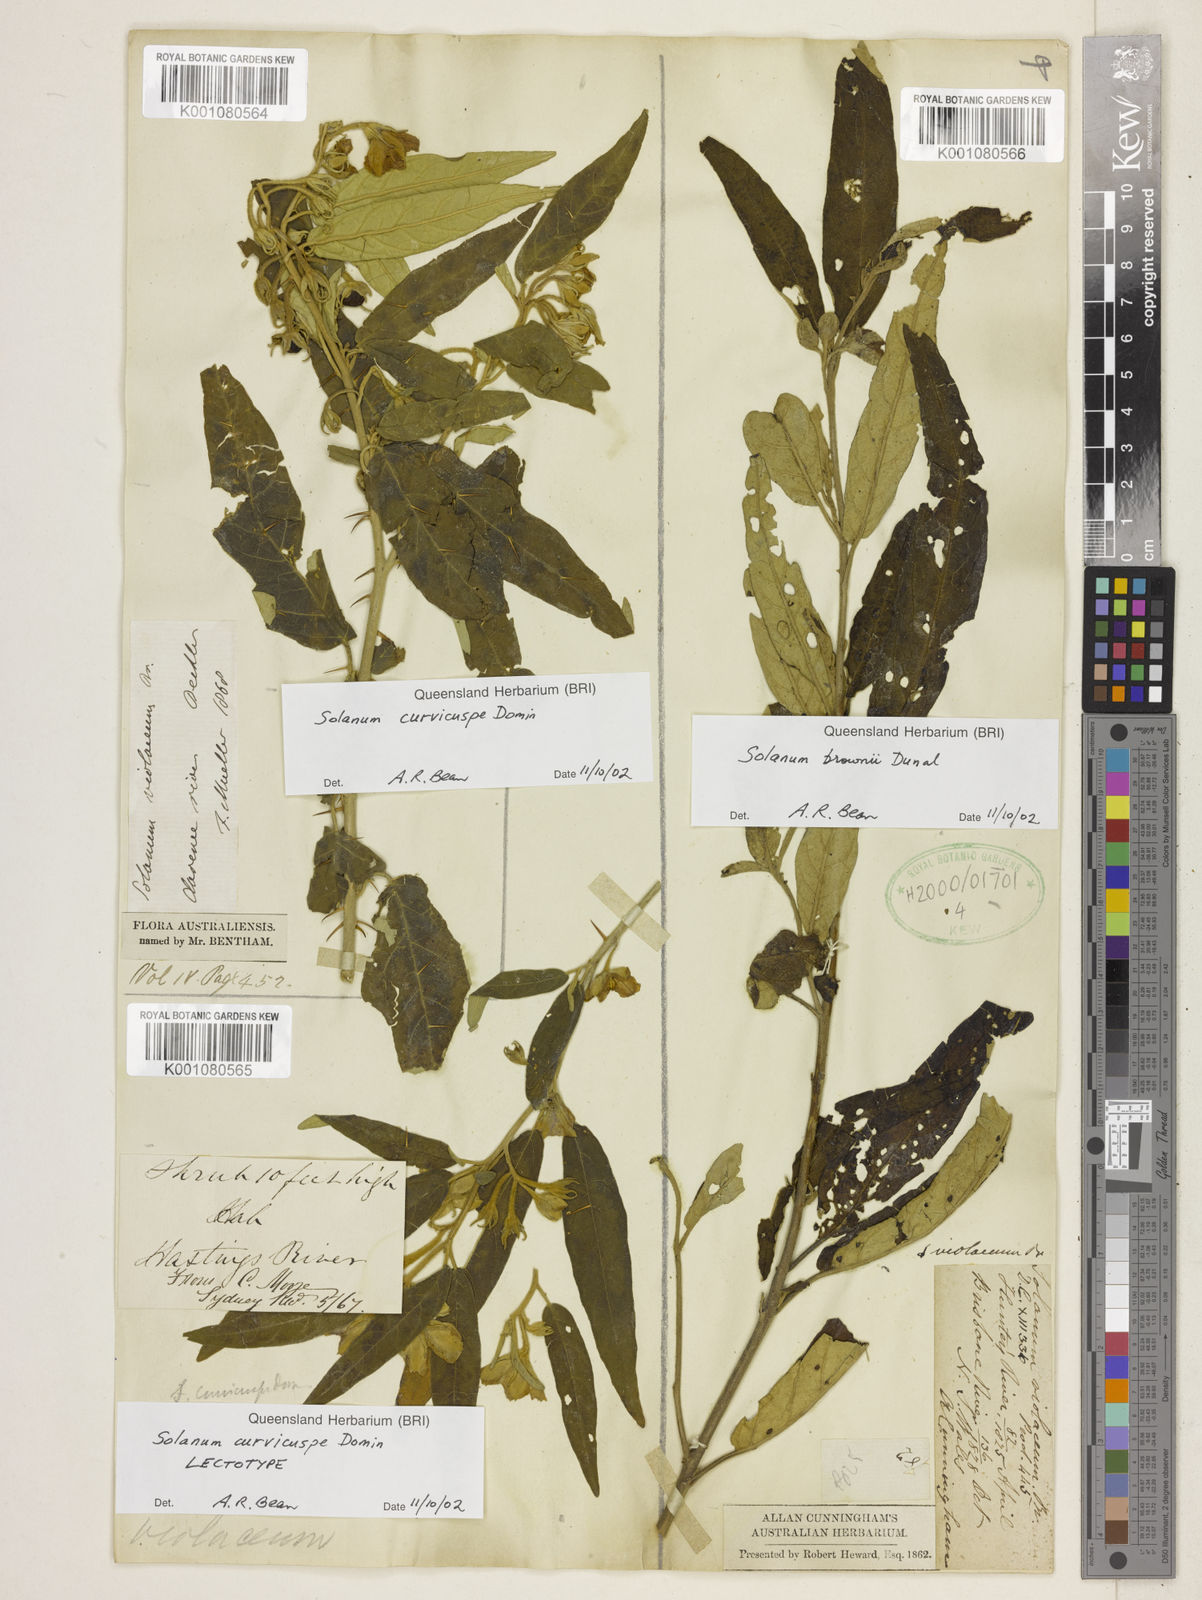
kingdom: Plantae
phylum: Tracheophyta
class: Magnoliopsida
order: Solanales
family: Solanaceae
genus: Solanum
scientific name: Solanum hasslerianum
